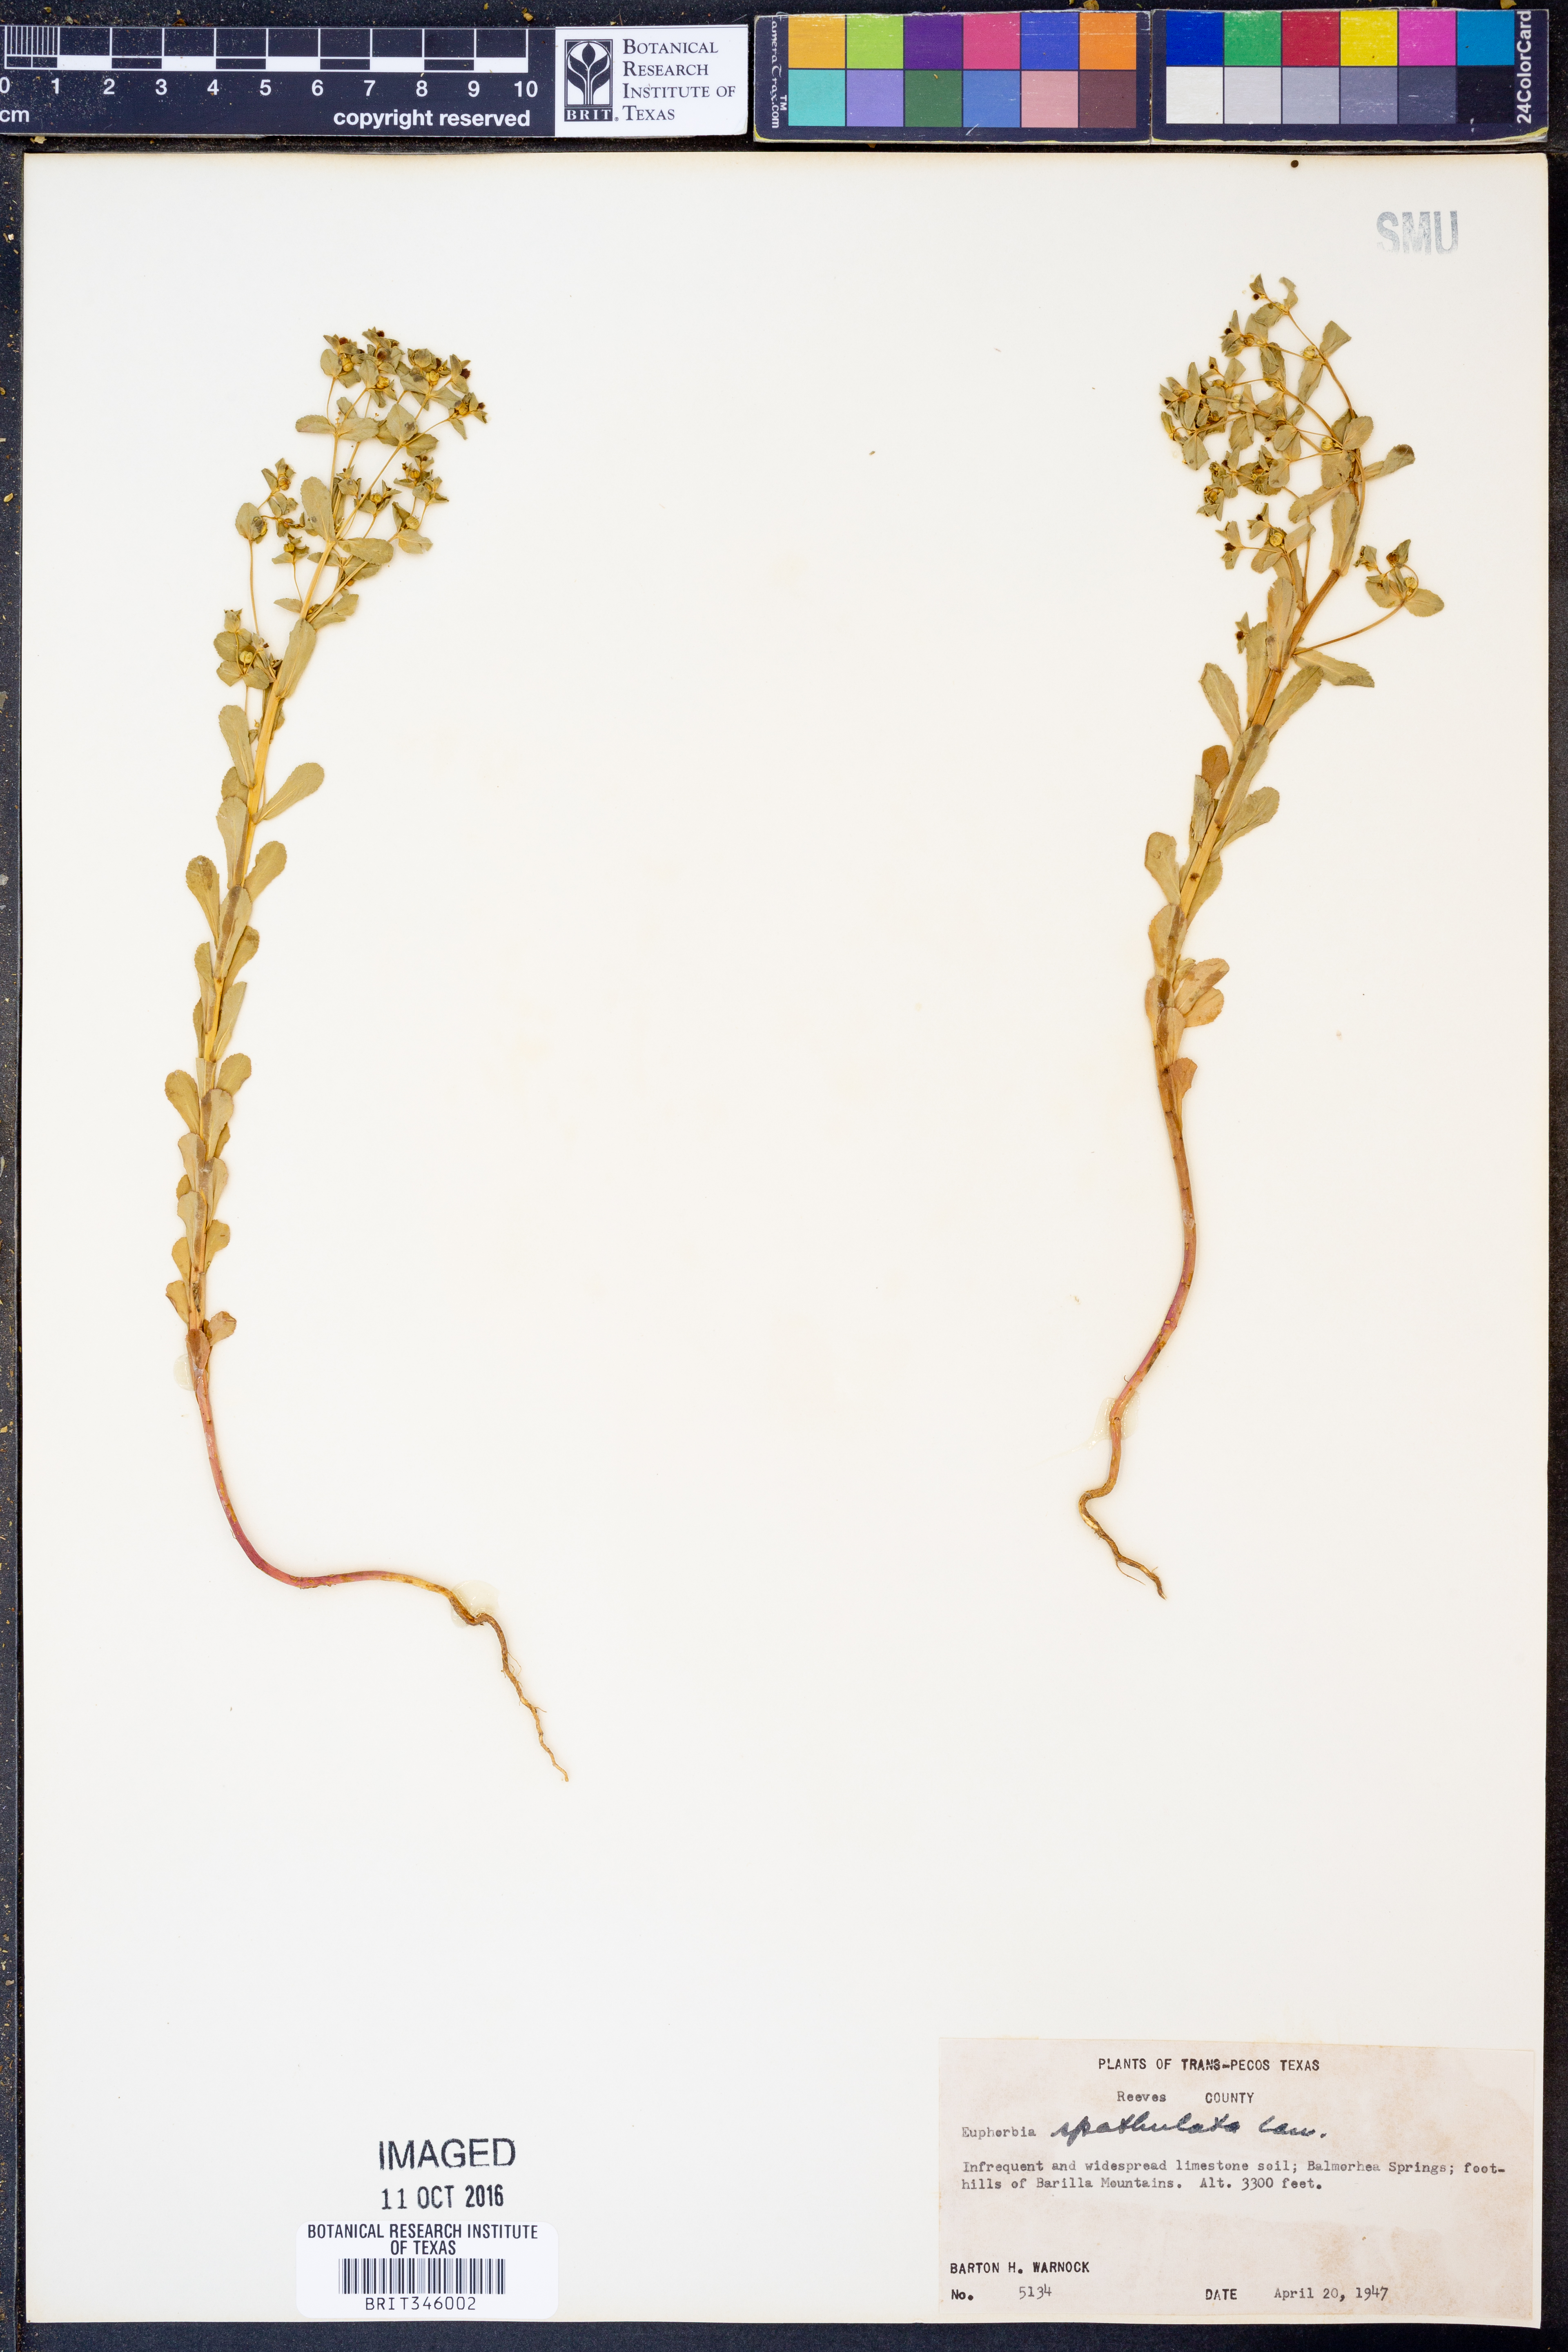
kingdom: Plantae
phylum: Tracheophyta
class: Magnoliopsida
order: Malpighiales
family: Euphorbiaceae
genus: Euphorbia
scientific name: Euphorbia spathulata
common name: Blunt spurge
